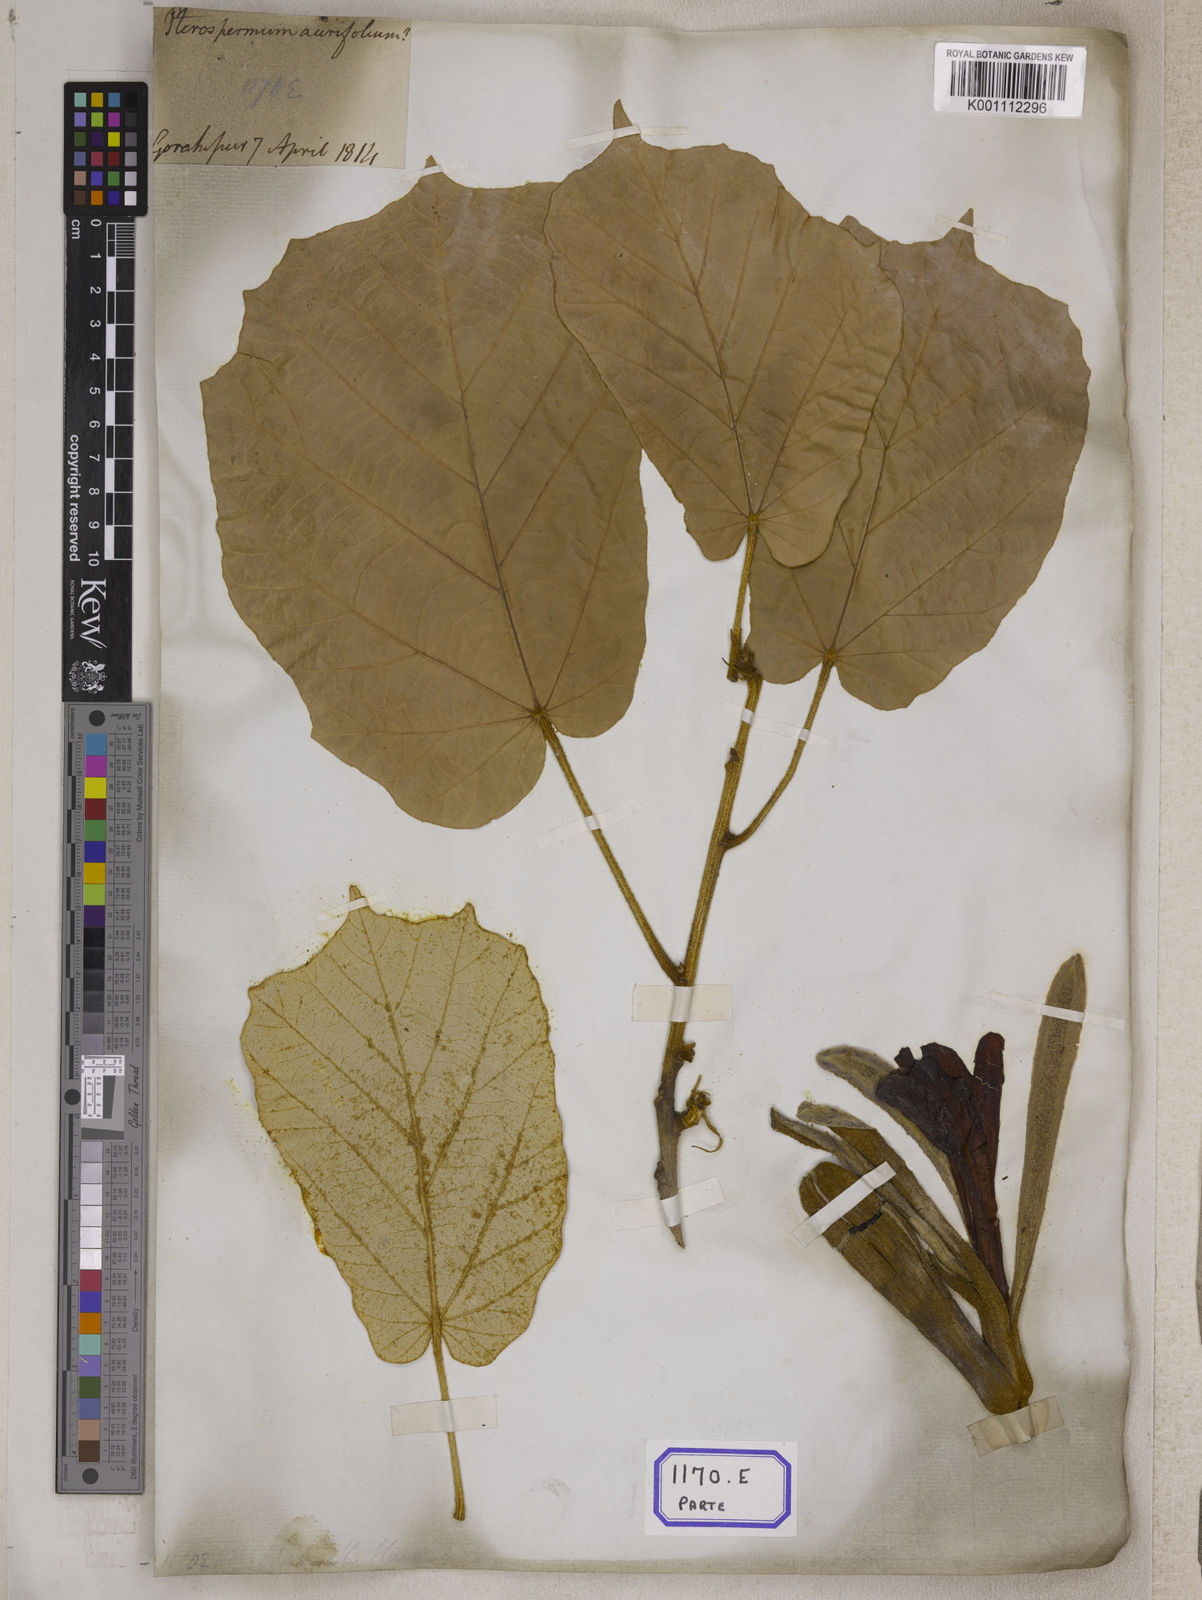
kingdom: Plantae
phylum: Tracheophyta
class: Magnoliopsida
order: Malvales
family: Malvaceae
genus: Pterospermum
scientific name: Pterospermum
